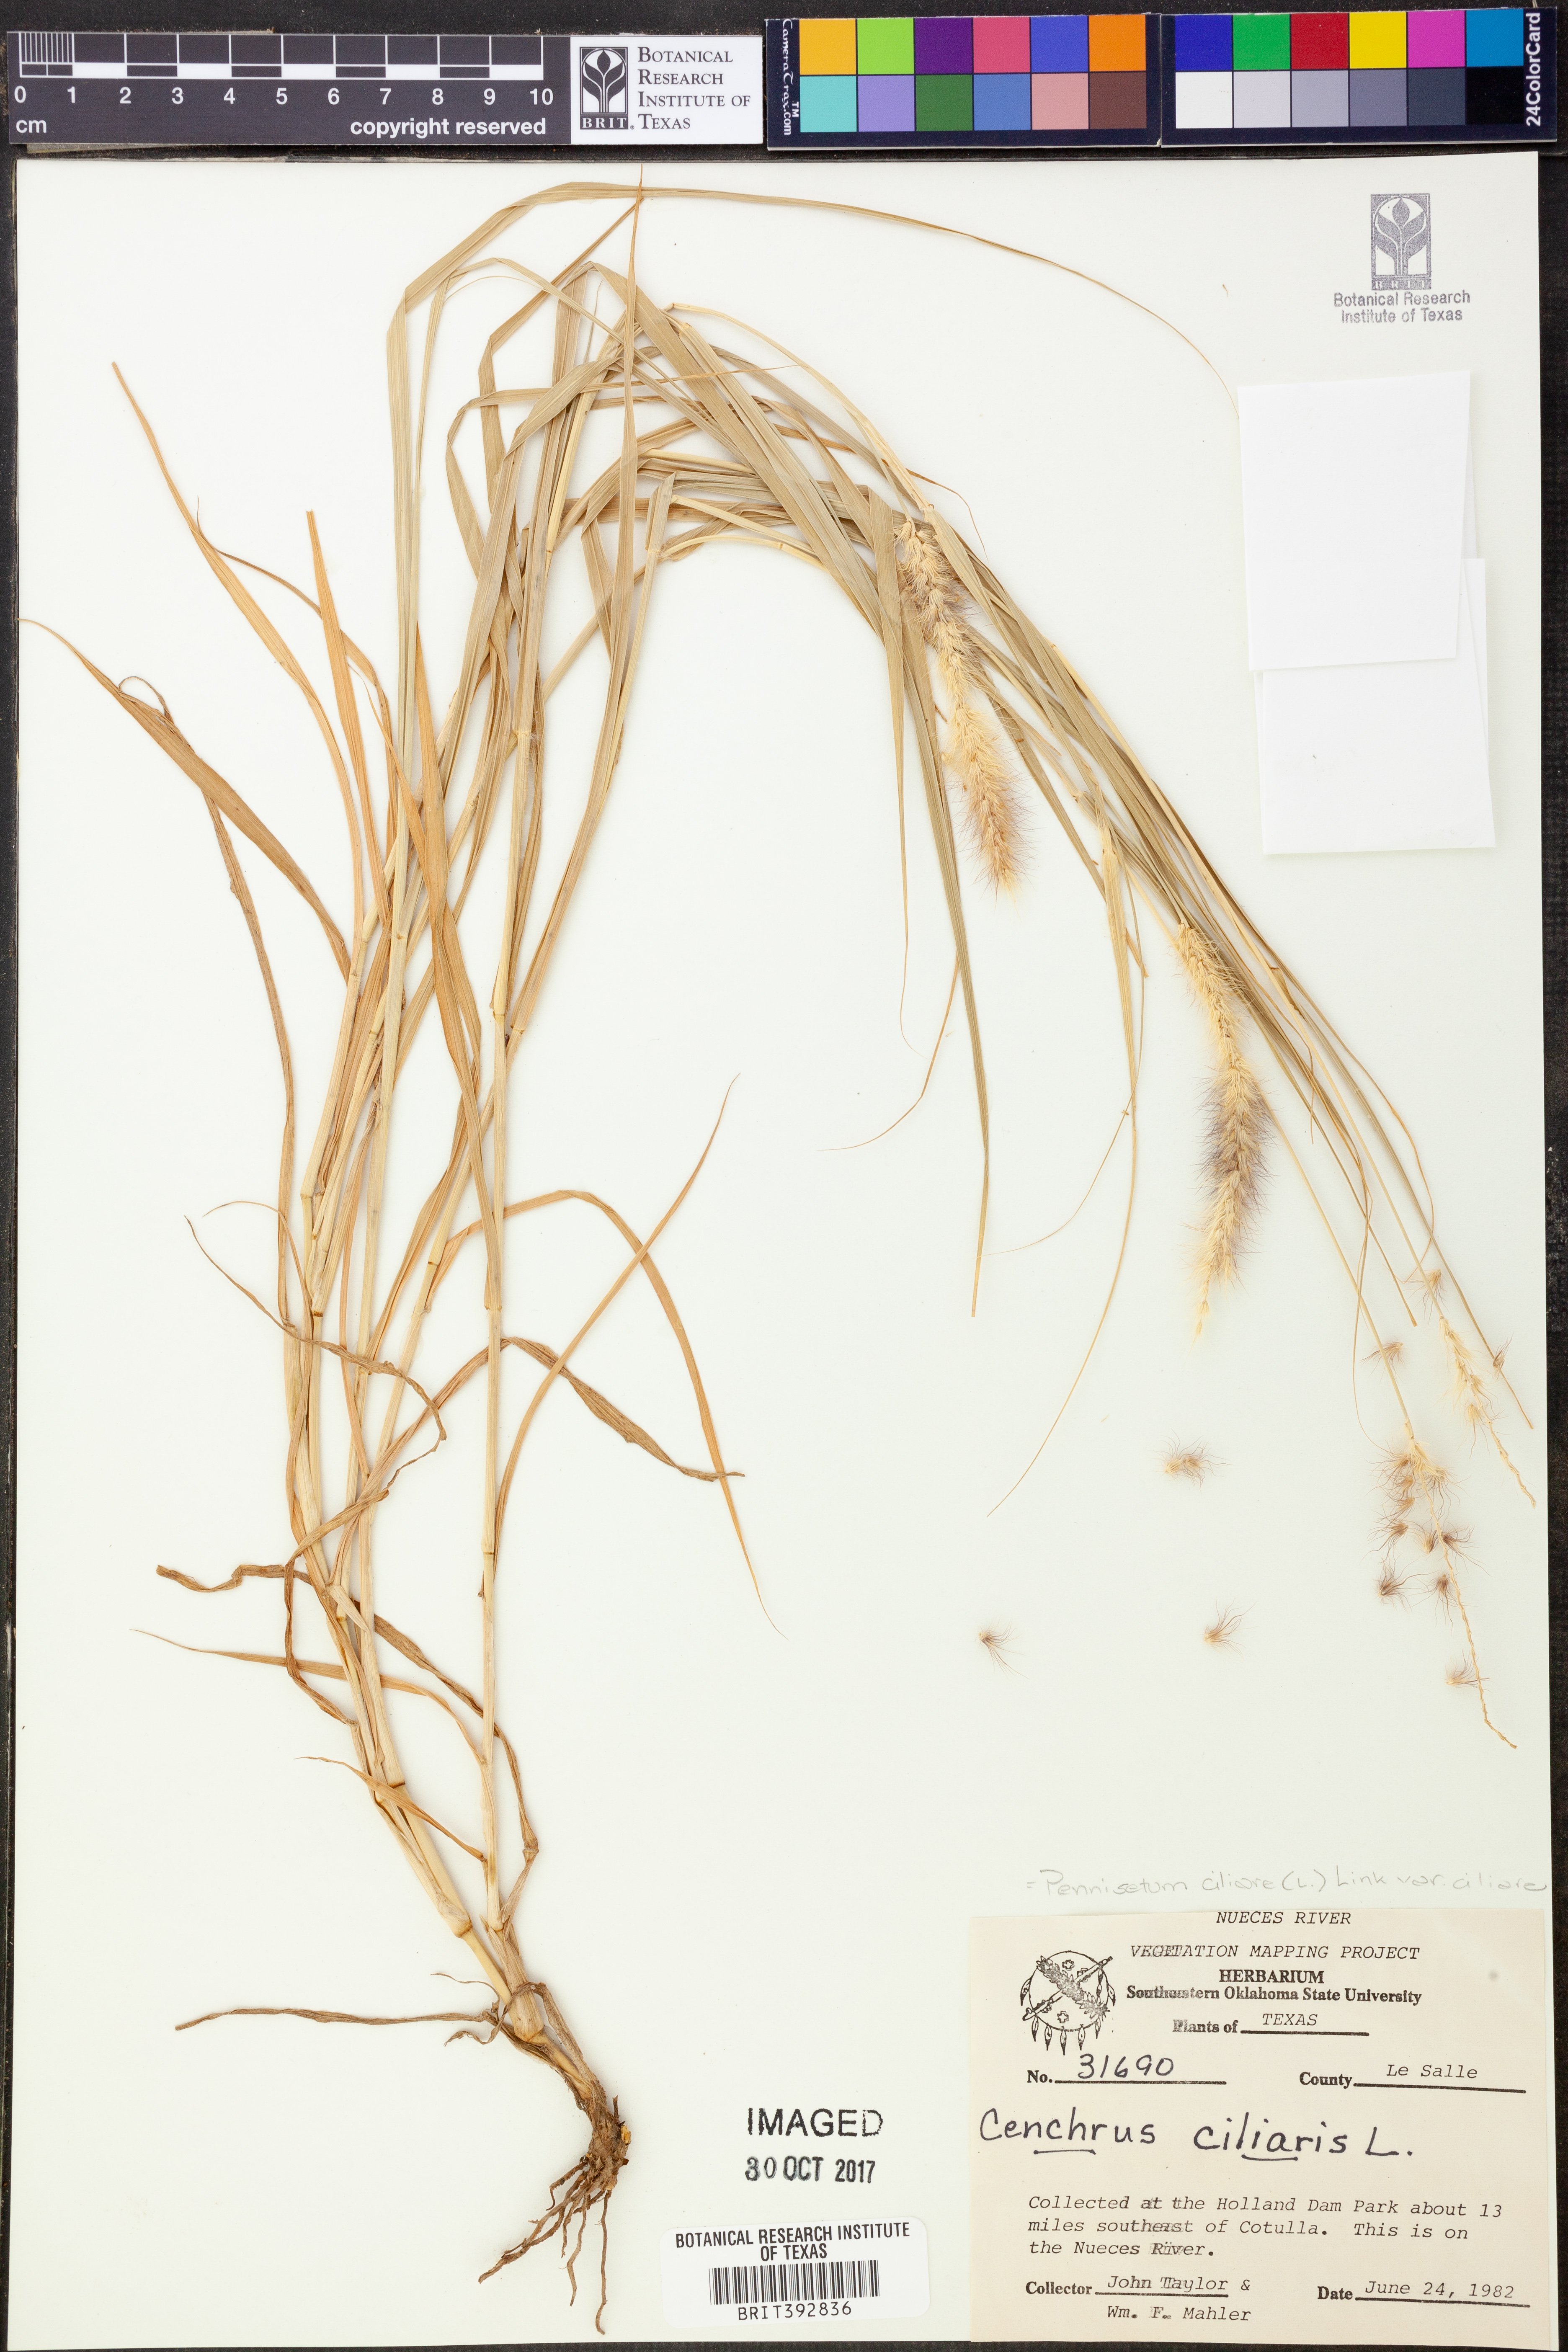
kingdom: Plantae
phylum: Tracheophyta
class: Liliopsida
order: Poales
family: Poaceae
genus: Cenchrus
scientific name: Cenchrus ciliaris
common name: Buffelgrass
